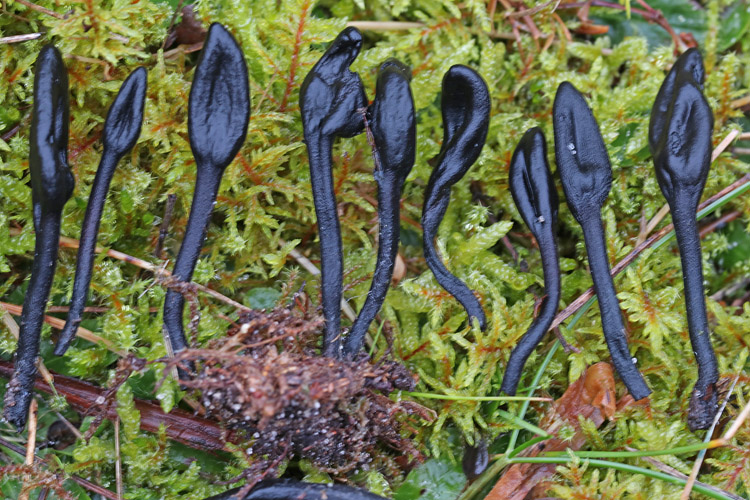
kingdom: Fungi
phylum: Ascomycota
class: Geoglossomycetes
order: Geoglossales
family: Geoglossaceae
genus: Trichoglossum
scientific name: Trichoglossum hirsutum
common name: håret jordtunge
